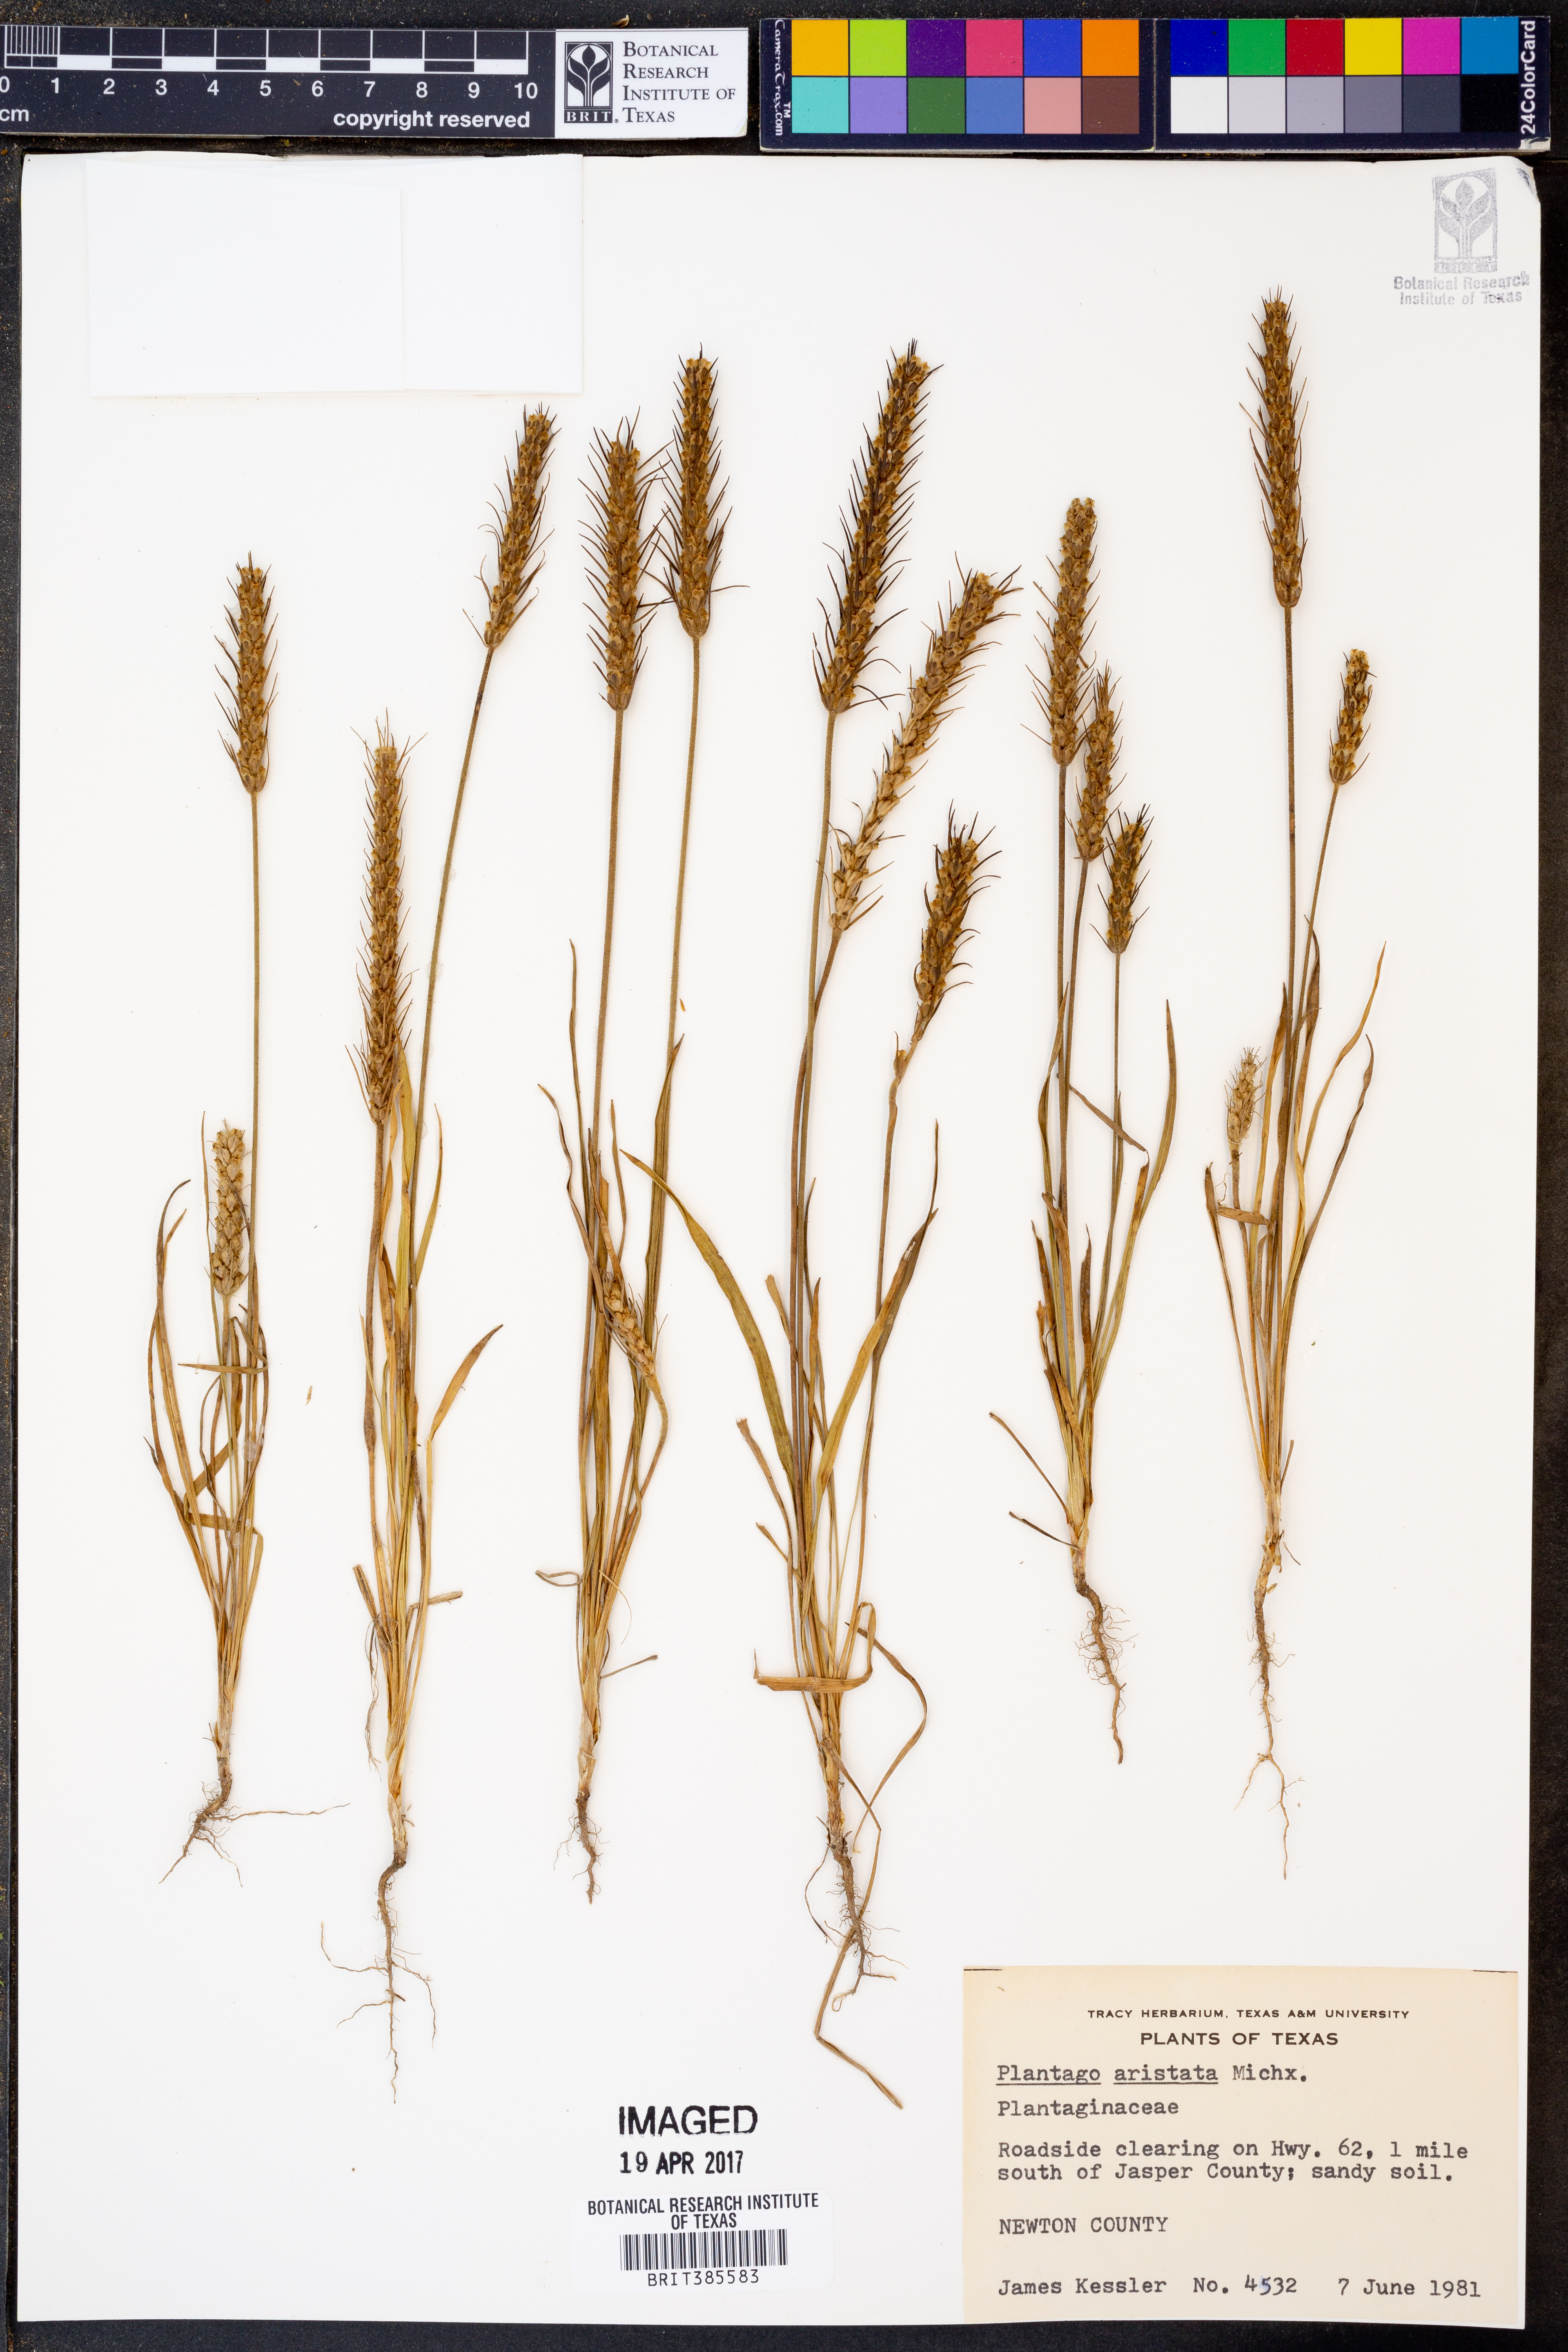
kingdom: Plantae
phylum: Tracheophyta
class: Magnoliopsida
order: Lamiales
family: Plantaginaceae
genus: Plantago
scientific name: Plantago aristata
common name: Bracted plantain
